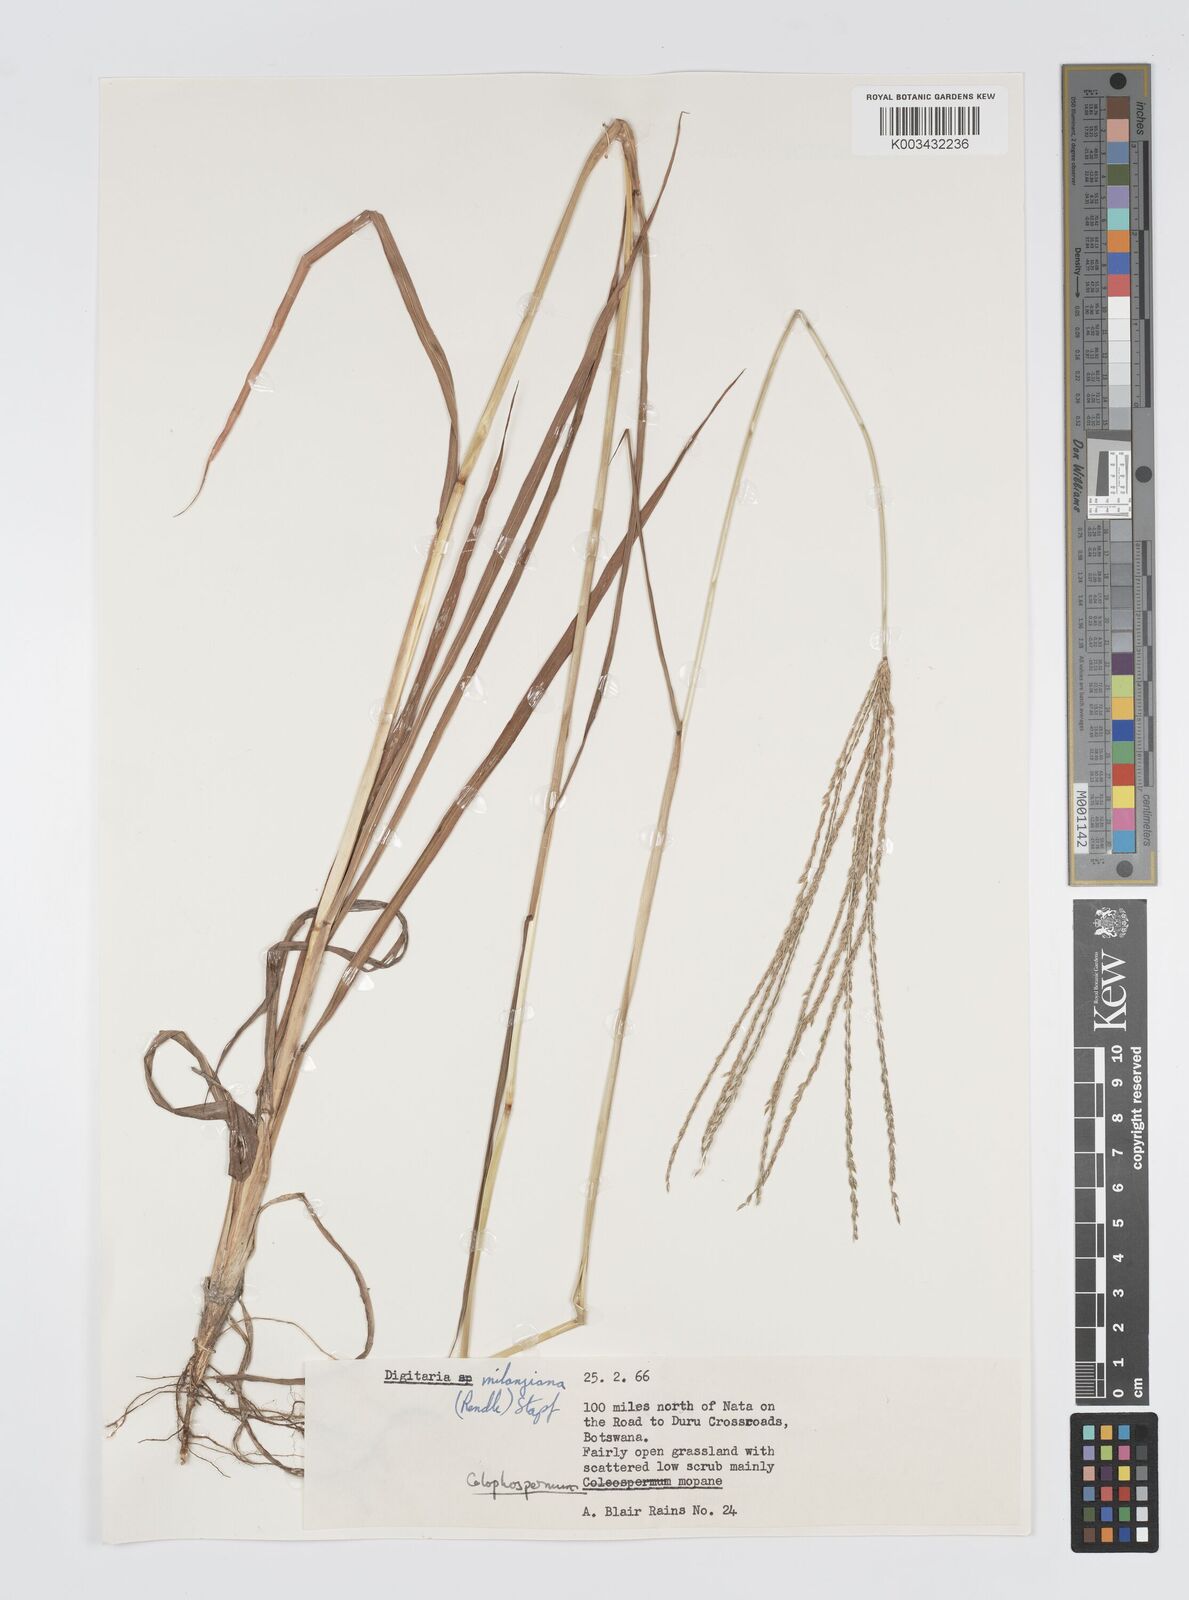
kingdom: Plantae
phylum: Tracheophyta
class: Liliopsida
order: Poales
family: Poaceae
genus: Digitaria
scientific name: Digitaria milanjiana
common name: Madagascar crabgrass
